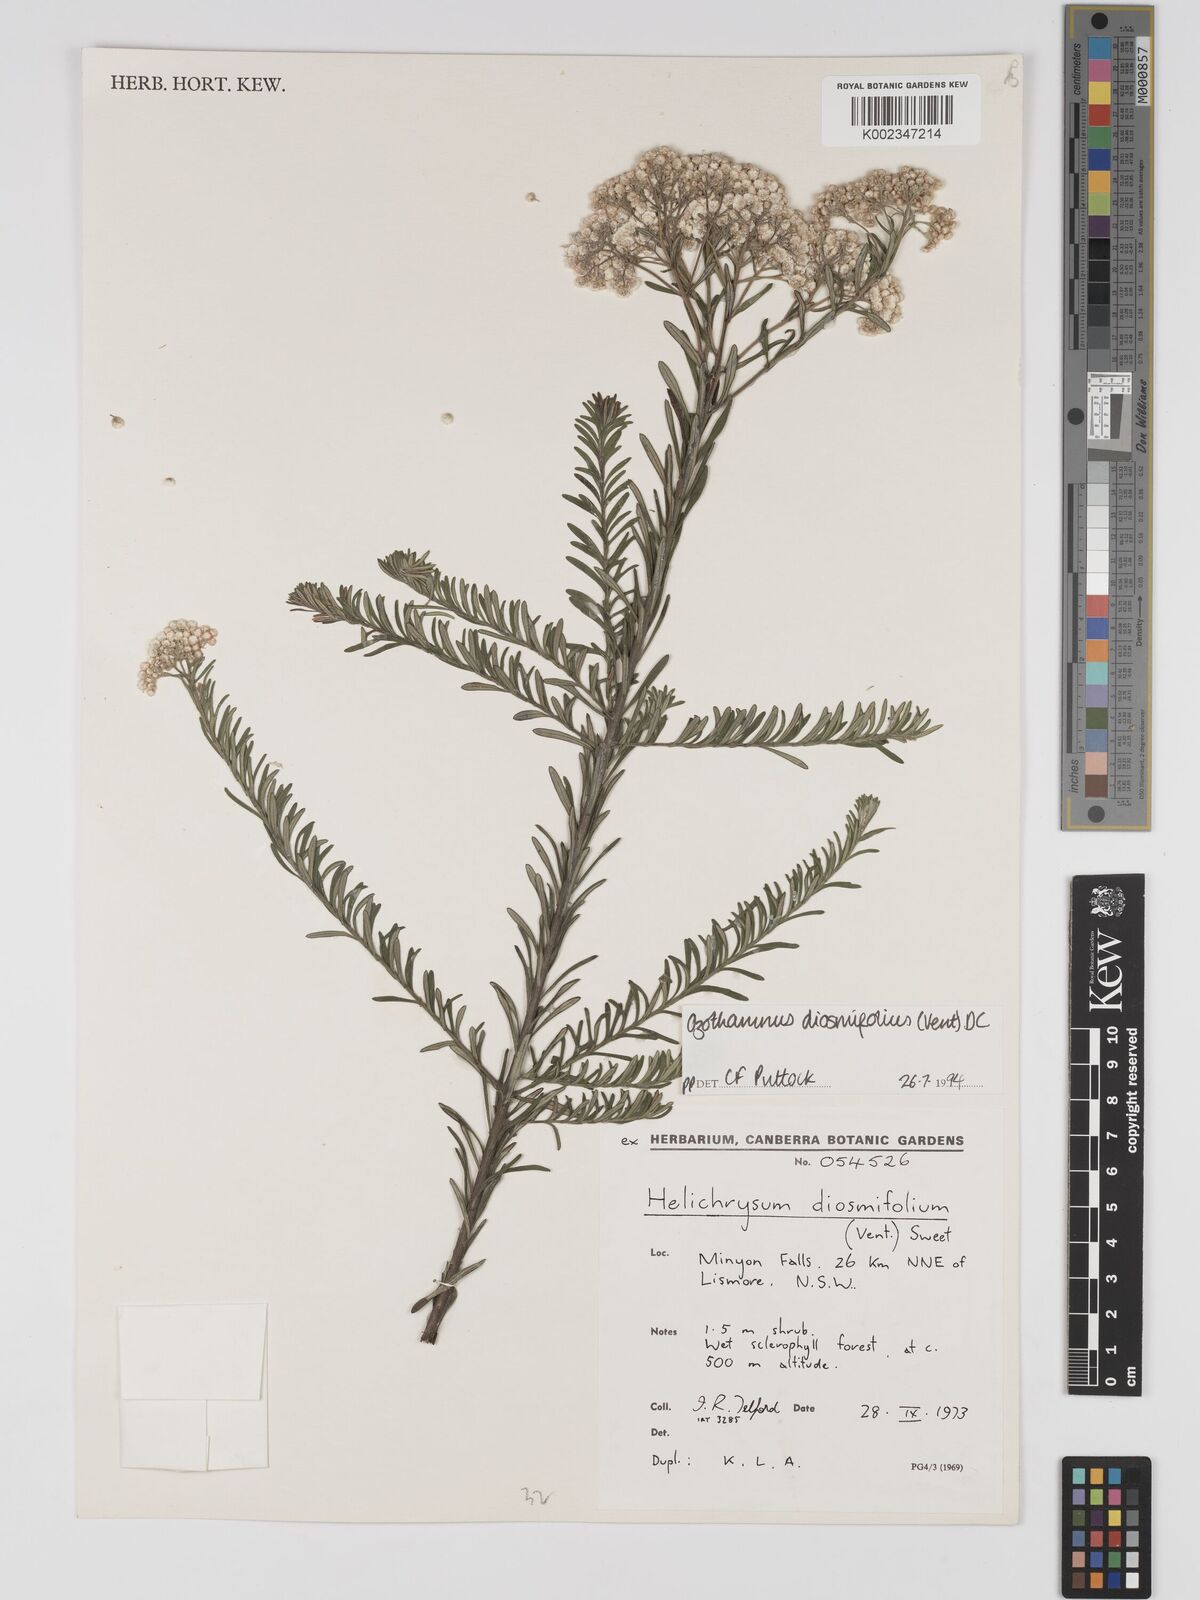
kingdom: Plantae
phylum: Tracheophyta
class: Magnoliopsida
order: Asterales
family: Asteraceae
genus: Ozothamnus
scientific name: Ozothamnus diosmifolius
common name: White-dogwood
